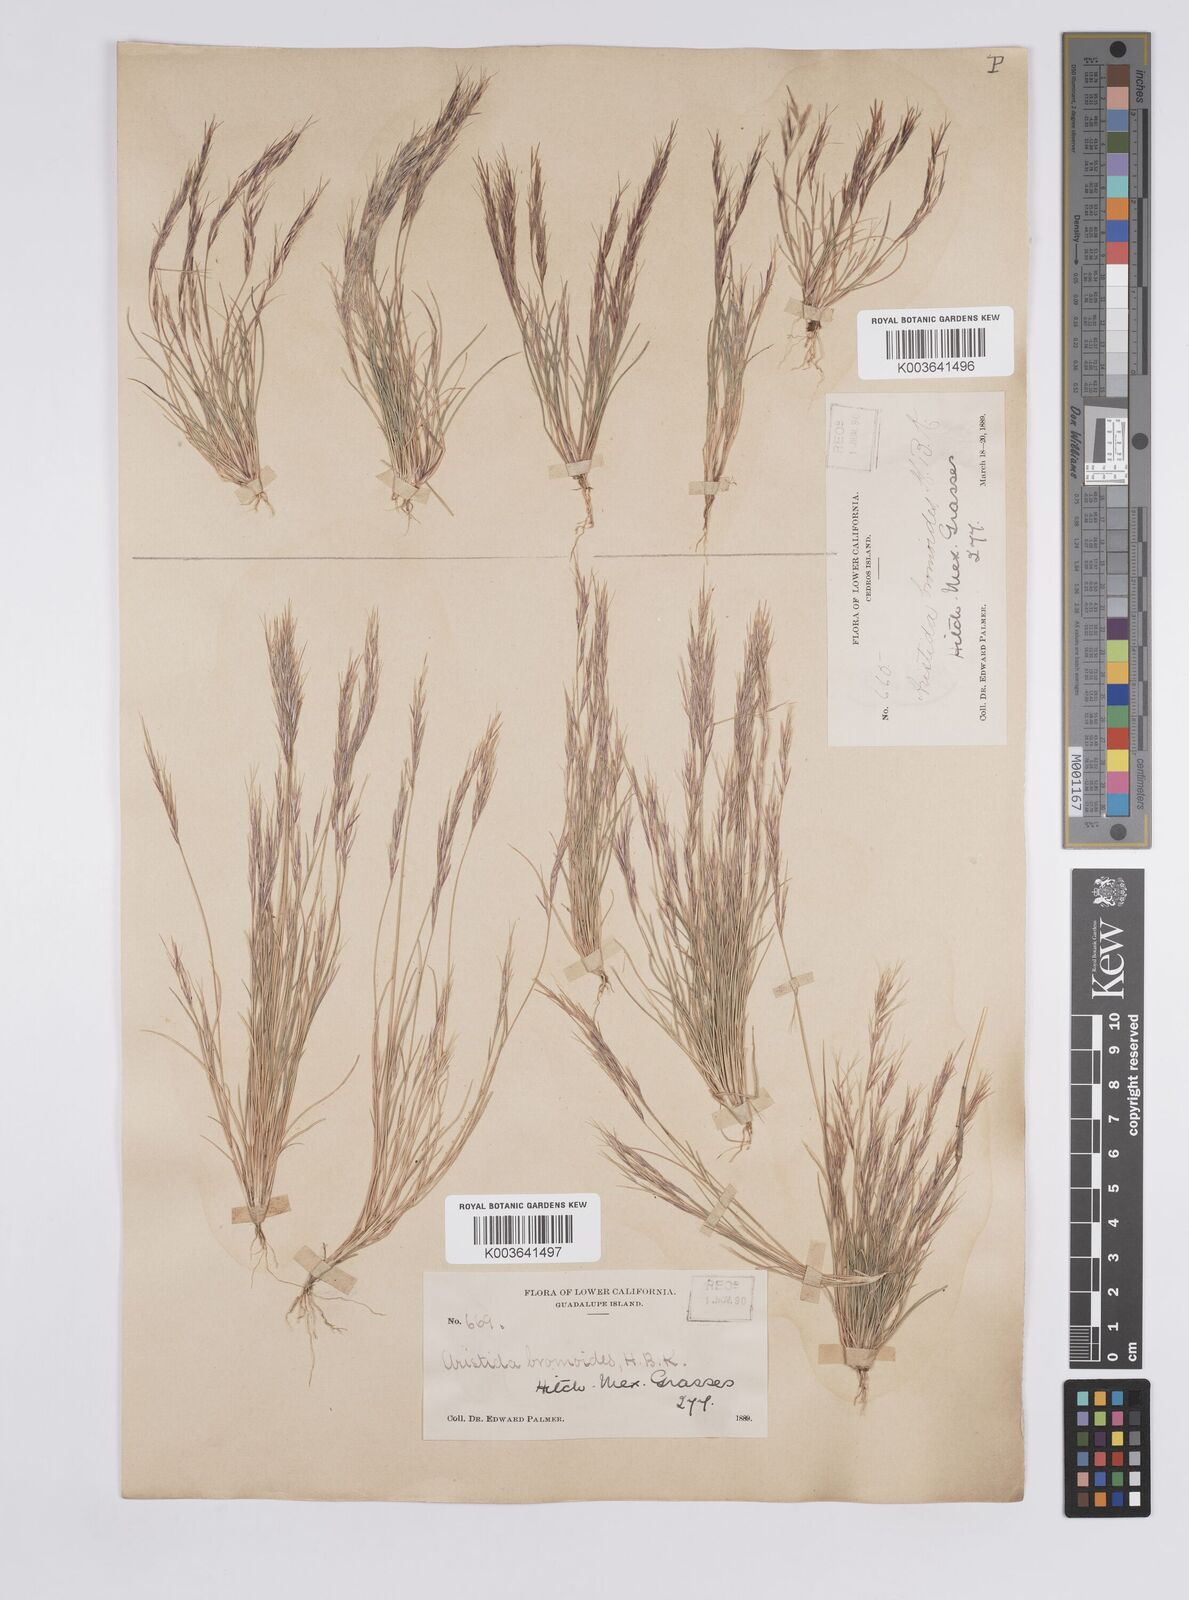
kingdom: Plantae
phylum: Tracheophyta
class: Liliopsida
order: Poales
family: Poaceae
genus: Aristida
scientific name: Aristida adscensionis
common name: Sixweeks threeawn
